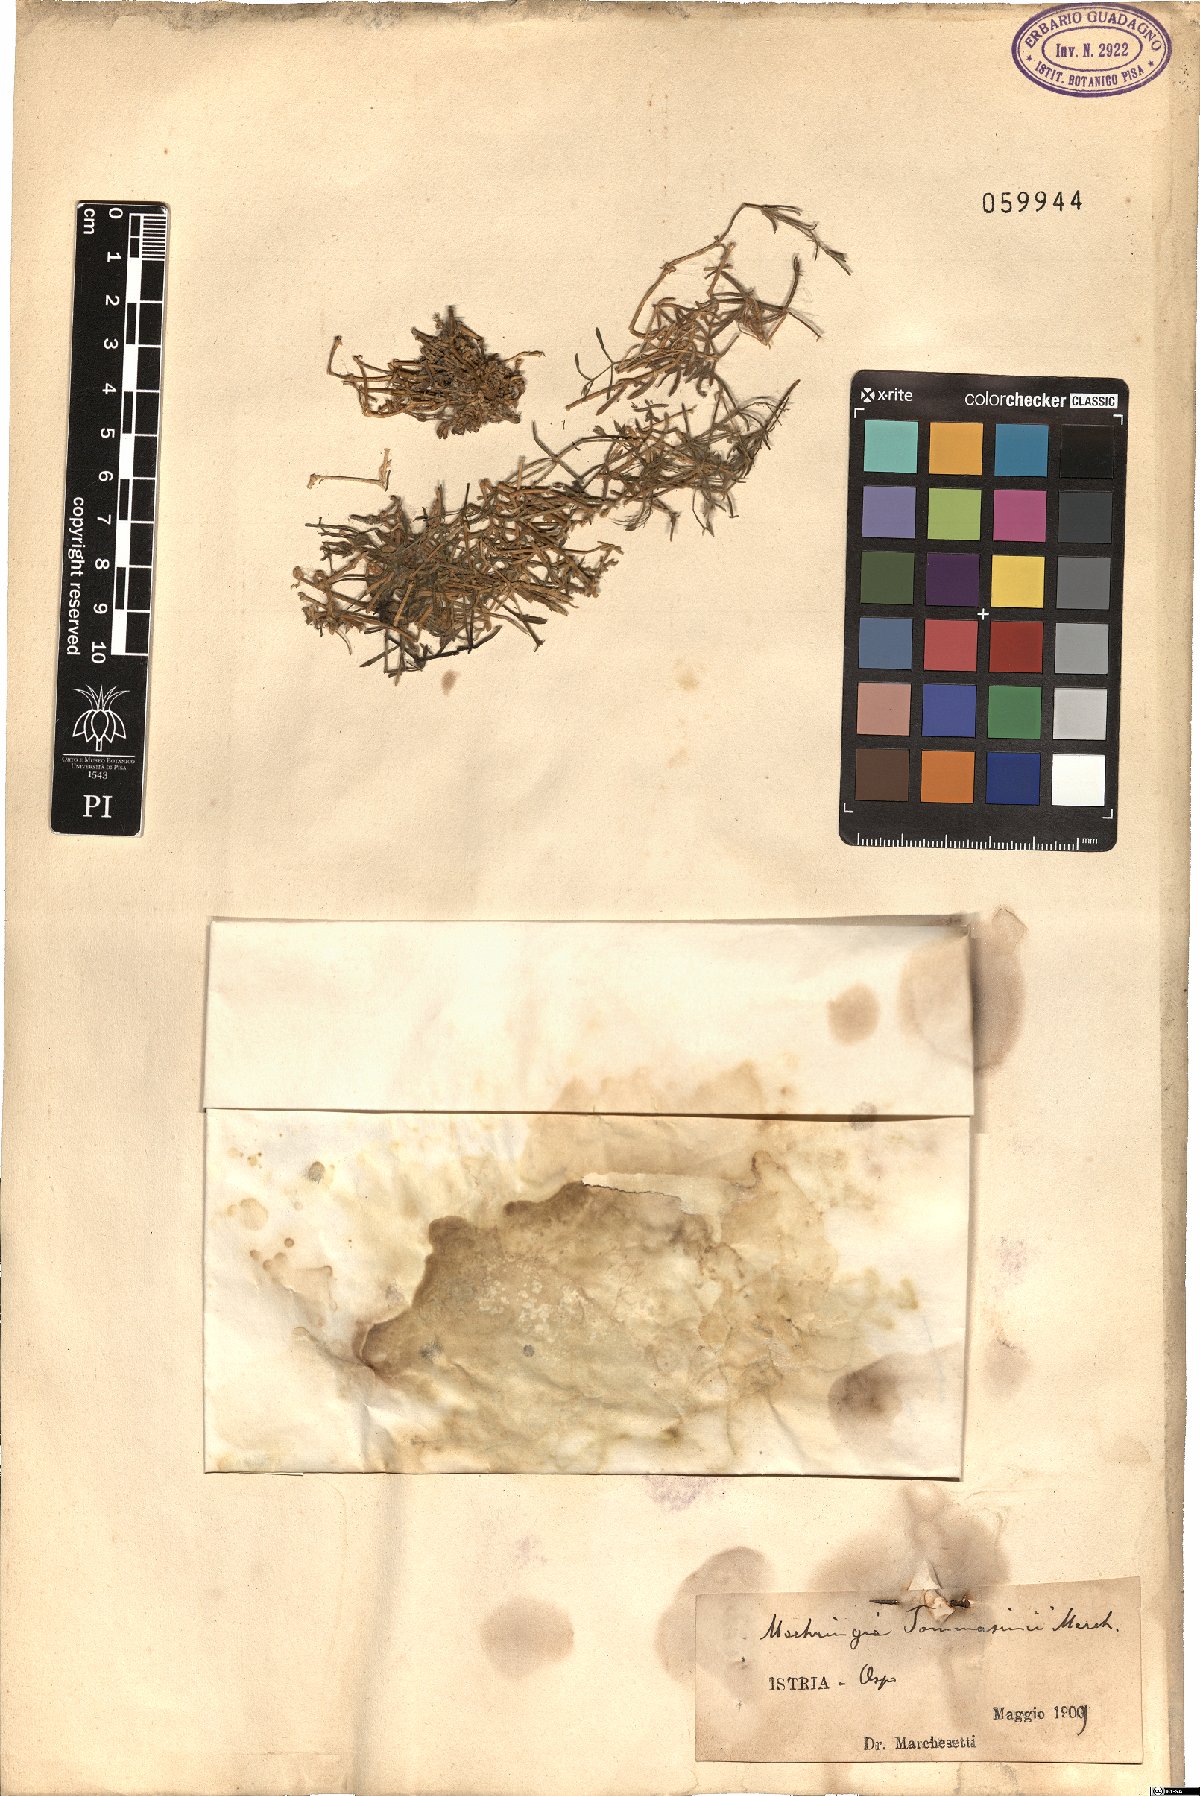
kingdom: Plantae
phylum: Tracheophyta
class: Magnoliopsida
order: Caryophyllales
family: Caryophyllaceae
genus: Moehringia
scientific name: Moehringia tommasinii
